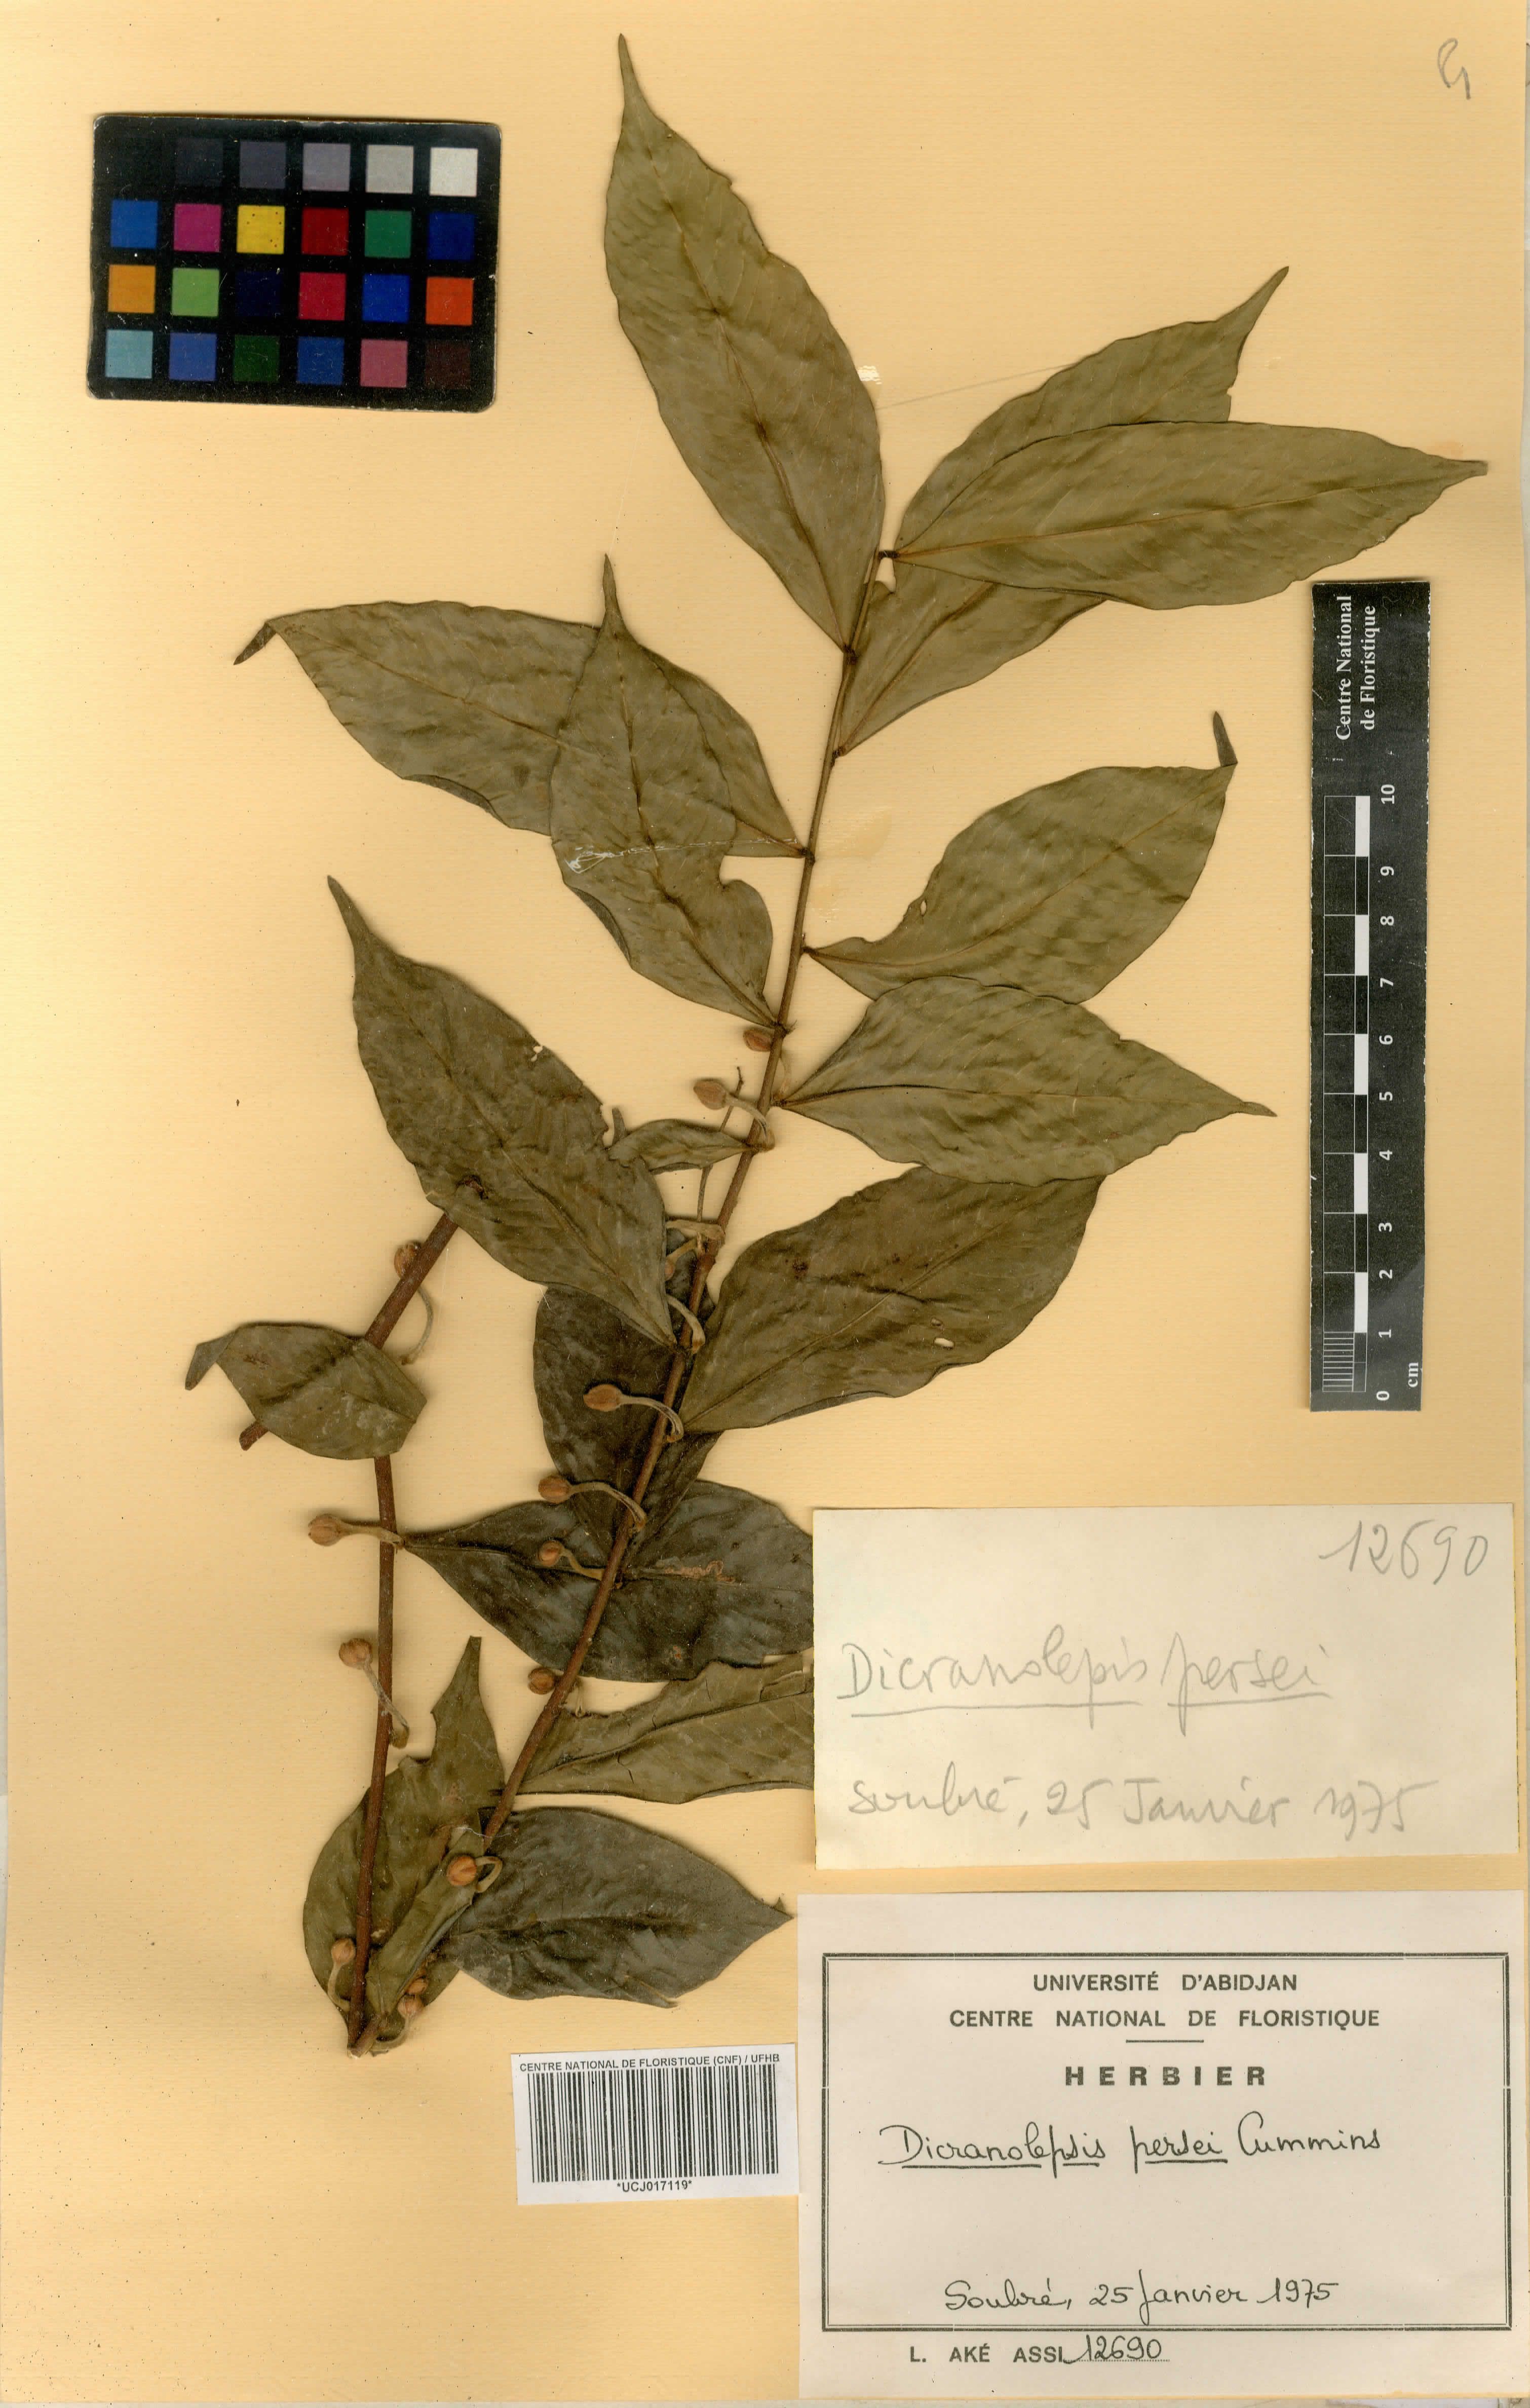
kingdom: Plantae
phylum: Tracheophyta
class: Magnoliopsida
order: Malvales
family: Thymelaeaceae
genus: Dicranolepis
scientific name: Dicranolepis persei
